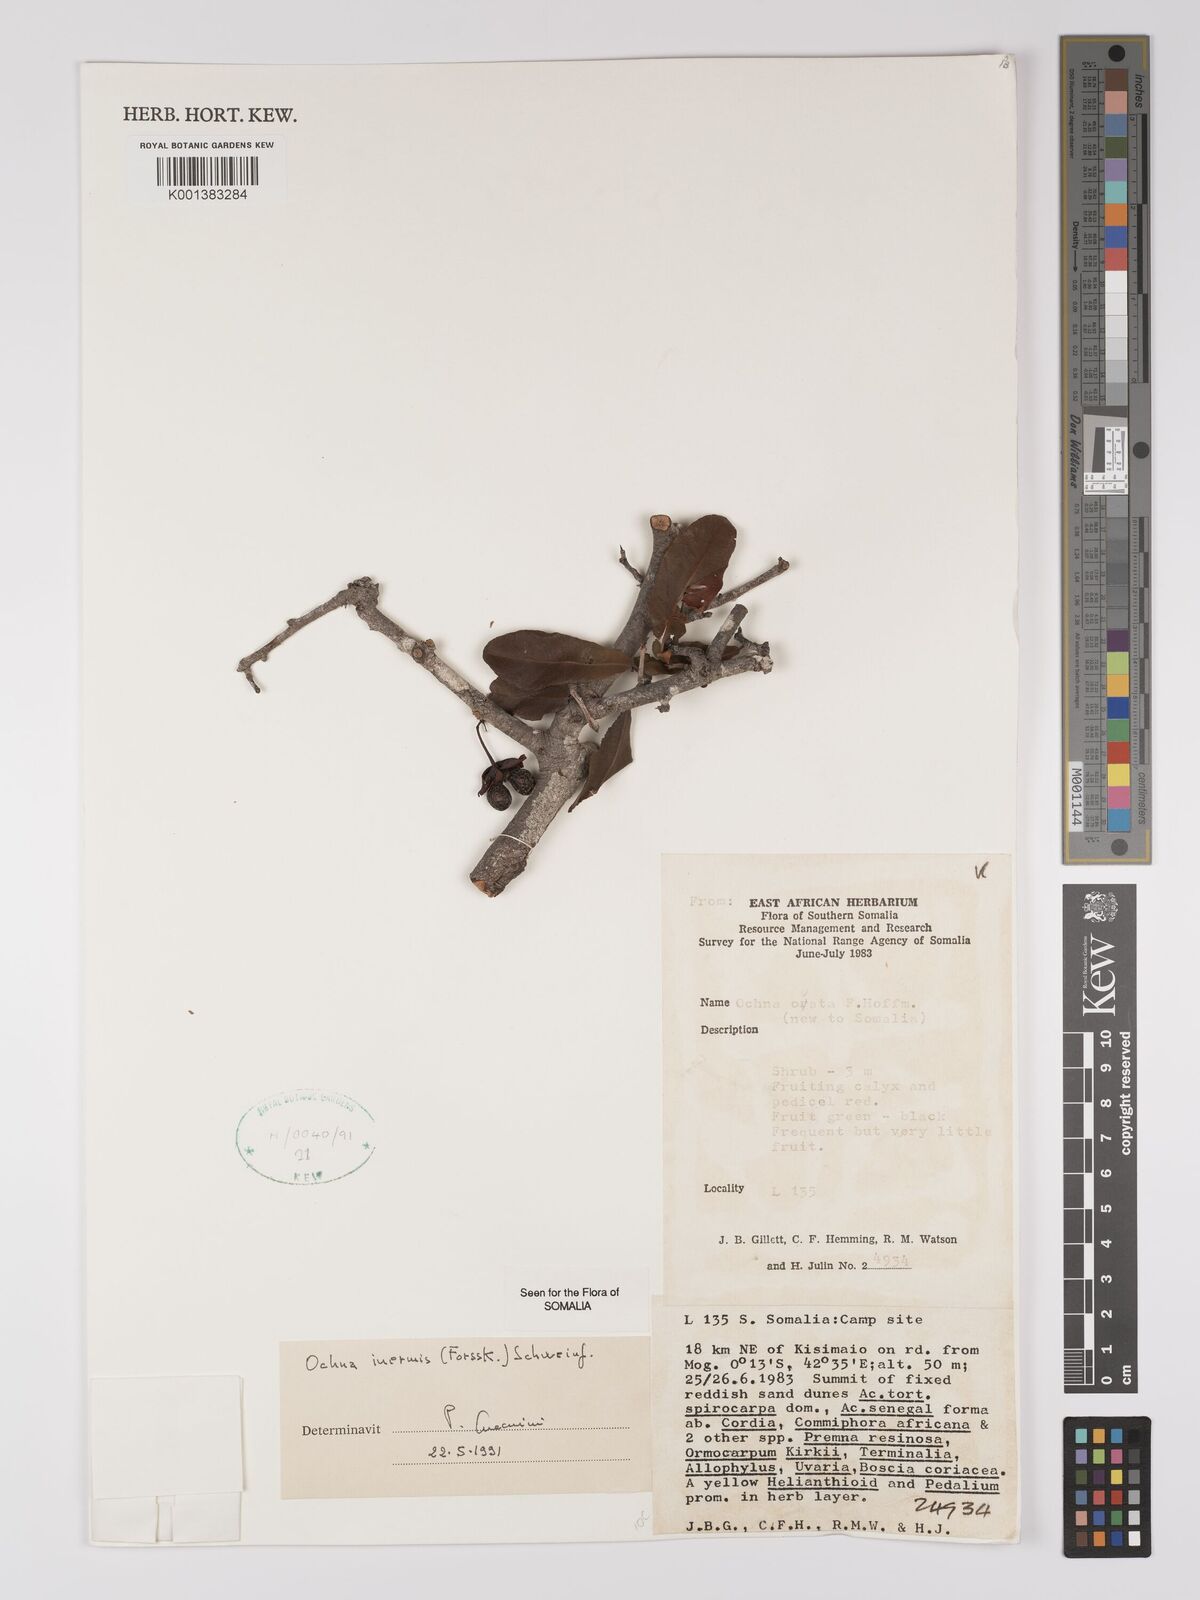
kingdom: Plantae
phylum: Tracheophyta
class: Magnoliopsida
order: Malpighiales
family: Ochnaceae
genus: Ochna
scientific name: Ochna inermis
